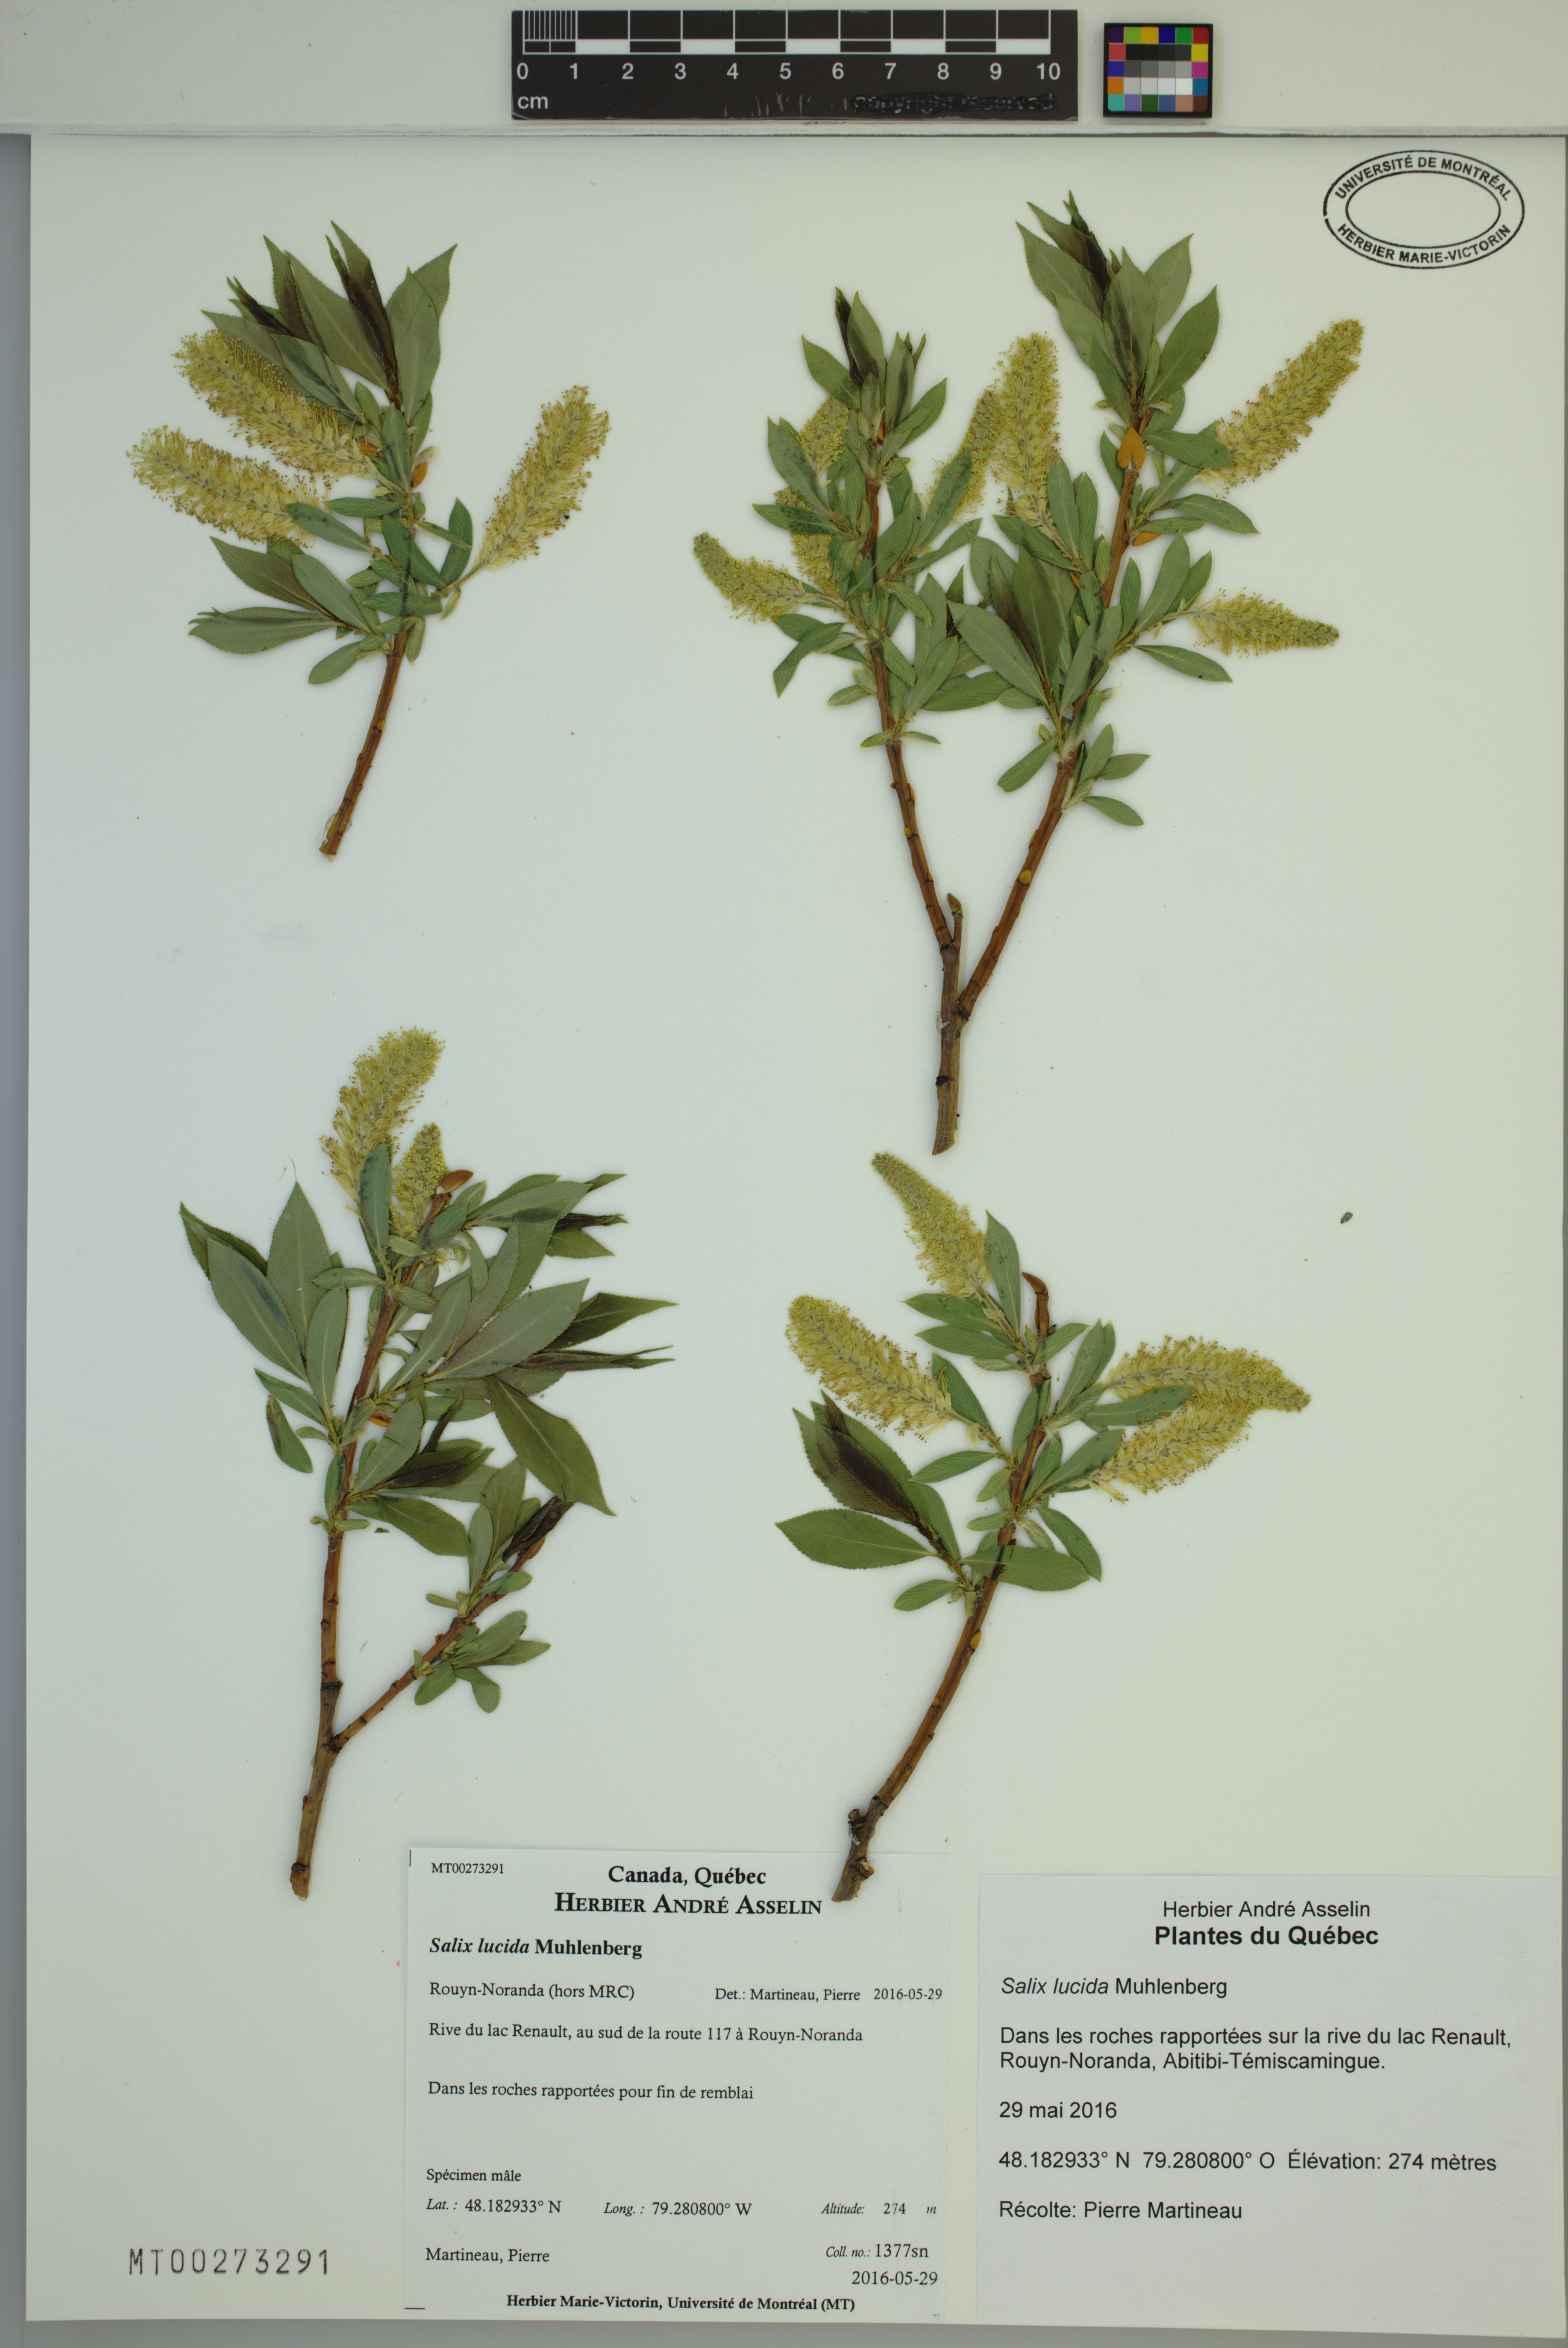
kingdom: Plantae
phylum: Tracheophyta
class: Magnoliopsida
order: Malpighiales
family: Salicaceae
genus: Salix
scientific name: Salix lucida
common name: Shining willow
